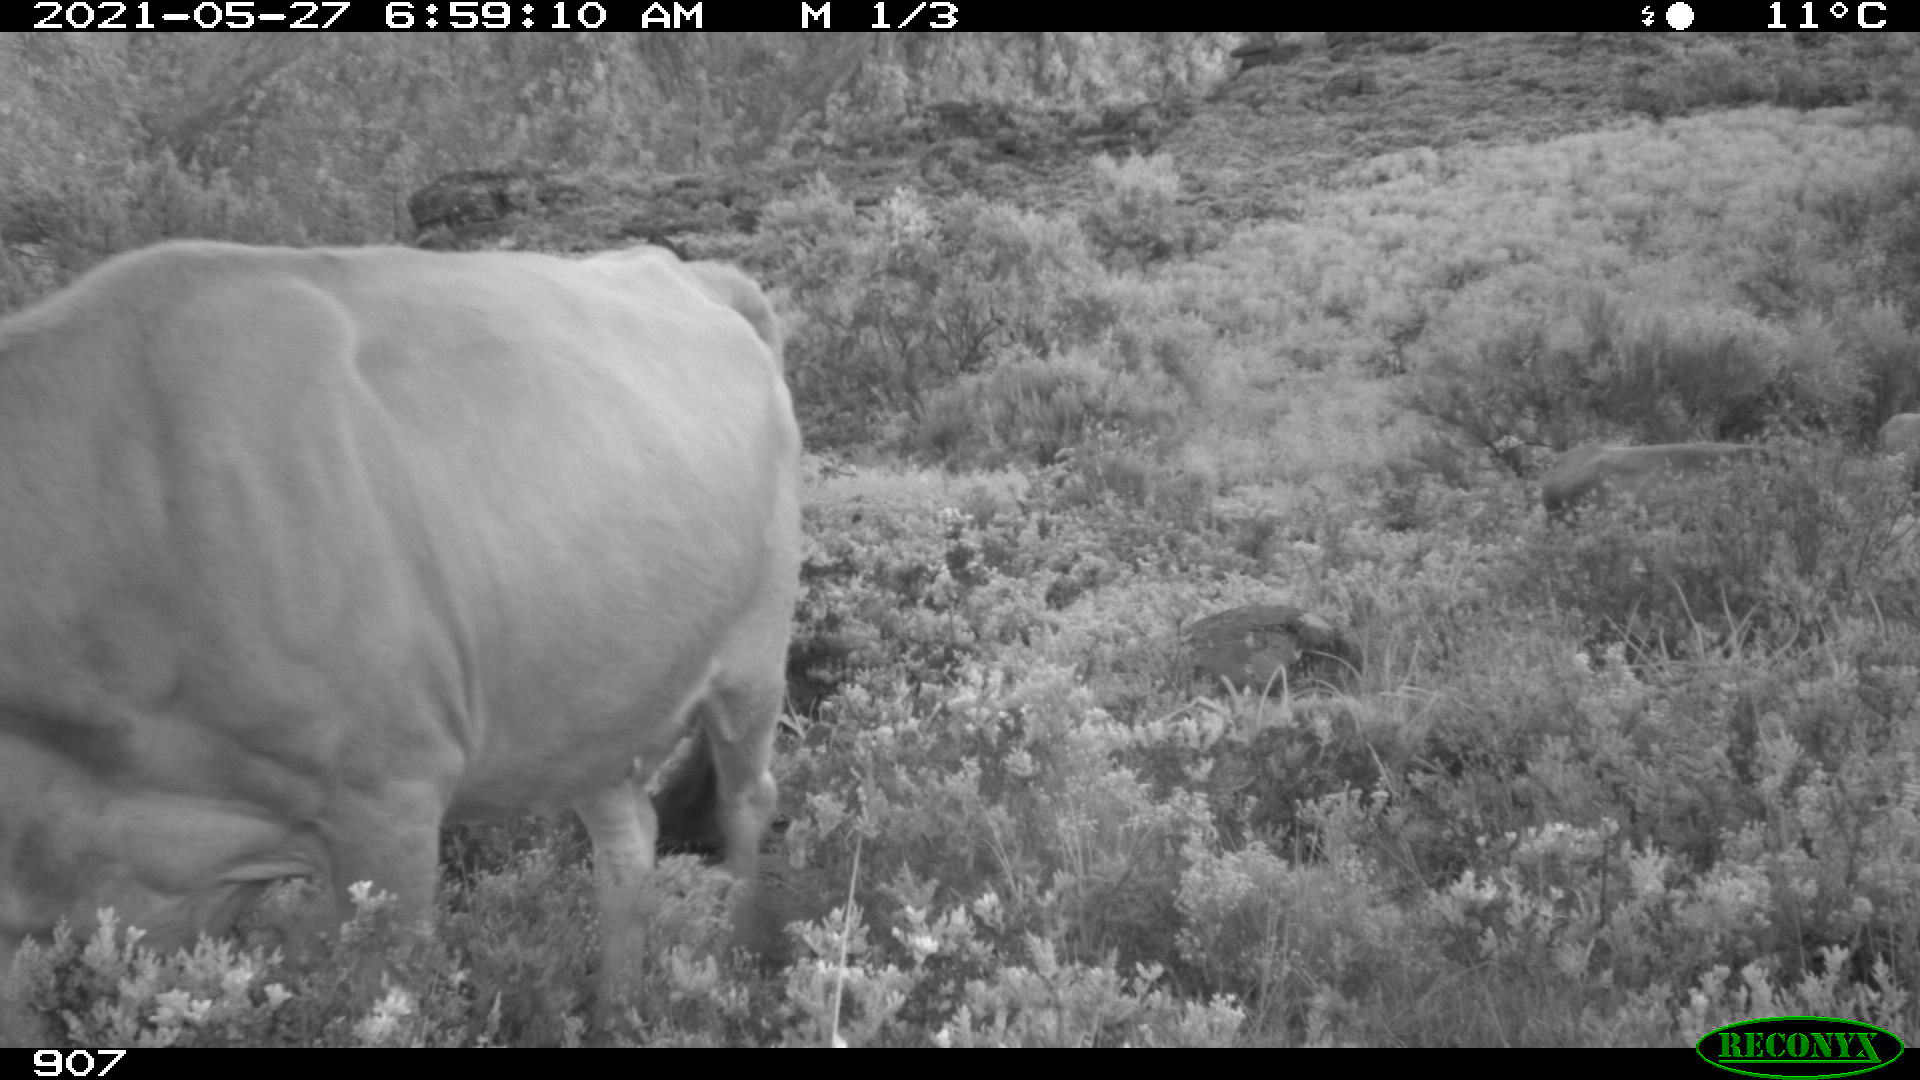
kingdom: Animalia
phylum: Chordata
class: Mammalia
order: Artiodactyla
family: Bovidae
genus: Bos
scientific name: Bos taurus
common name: Domesticated cattle
